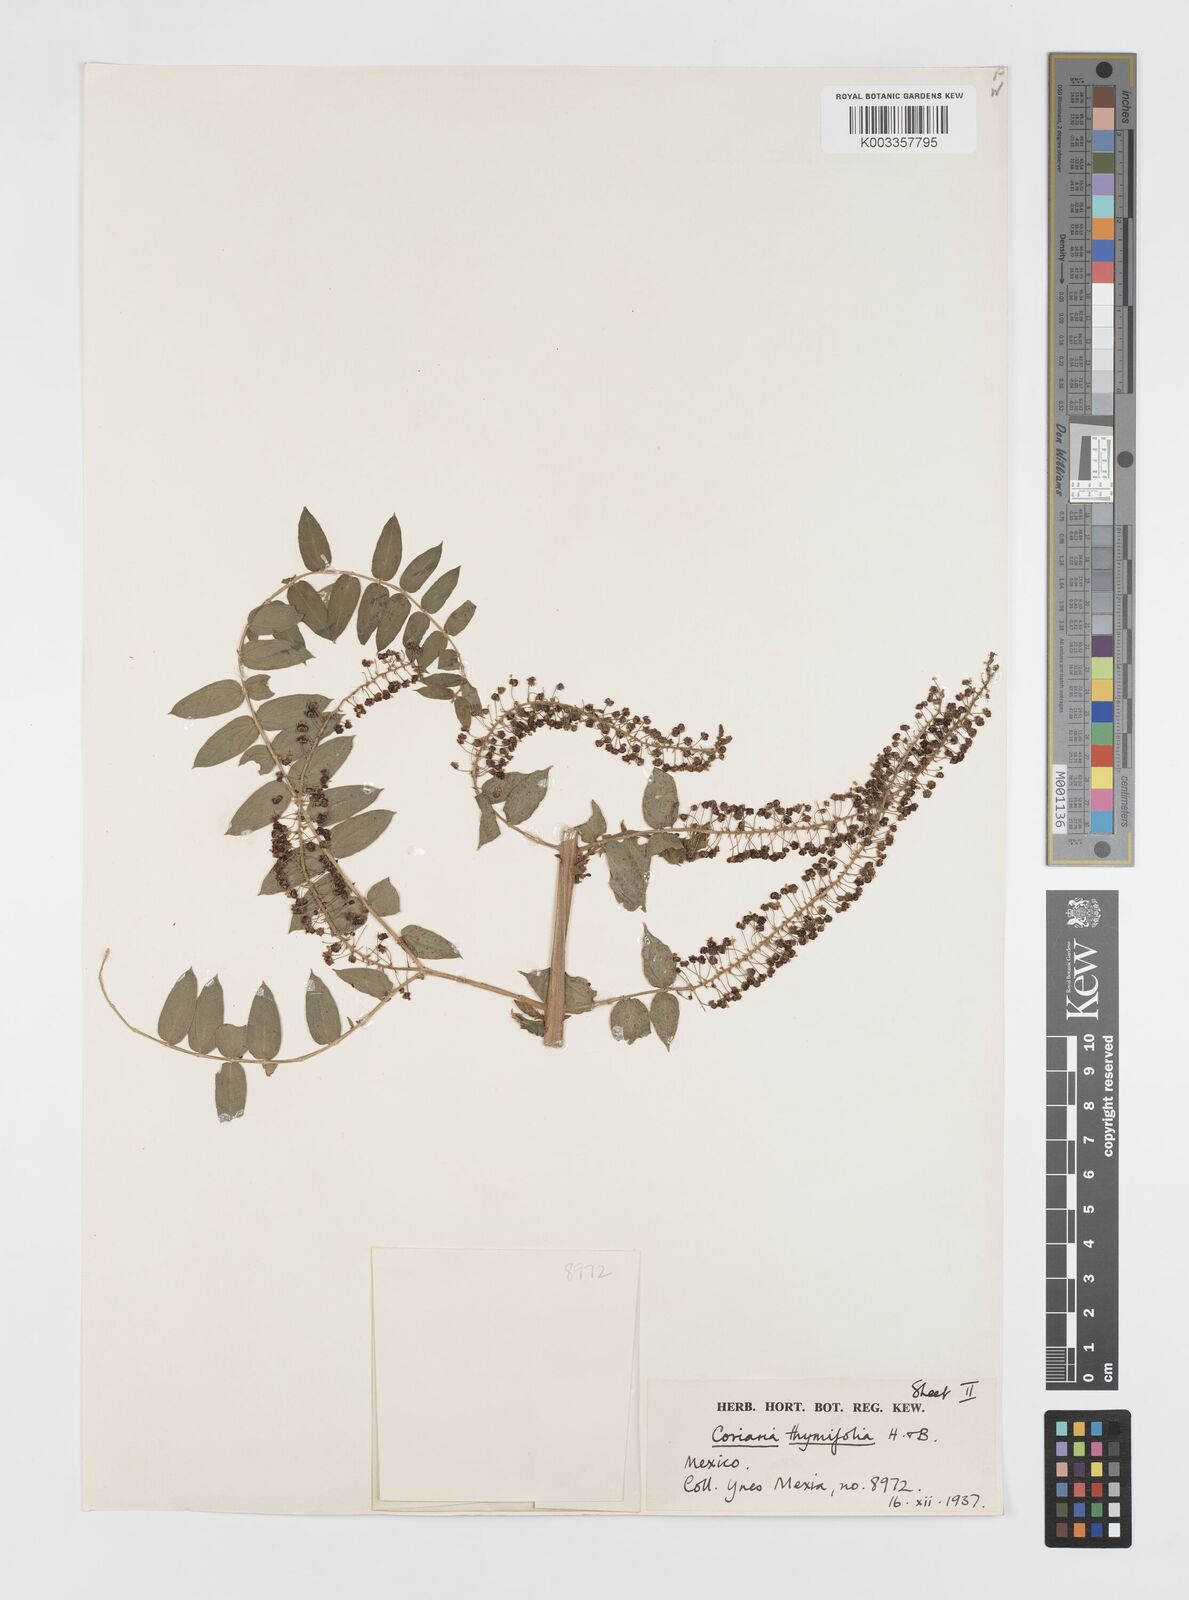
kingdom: Plantae
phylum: Tracheophyta
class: Magnoliopsida
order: Cucurbitales
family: Coriariaceae
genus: Coriaria
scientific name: Coriaria microphylla
